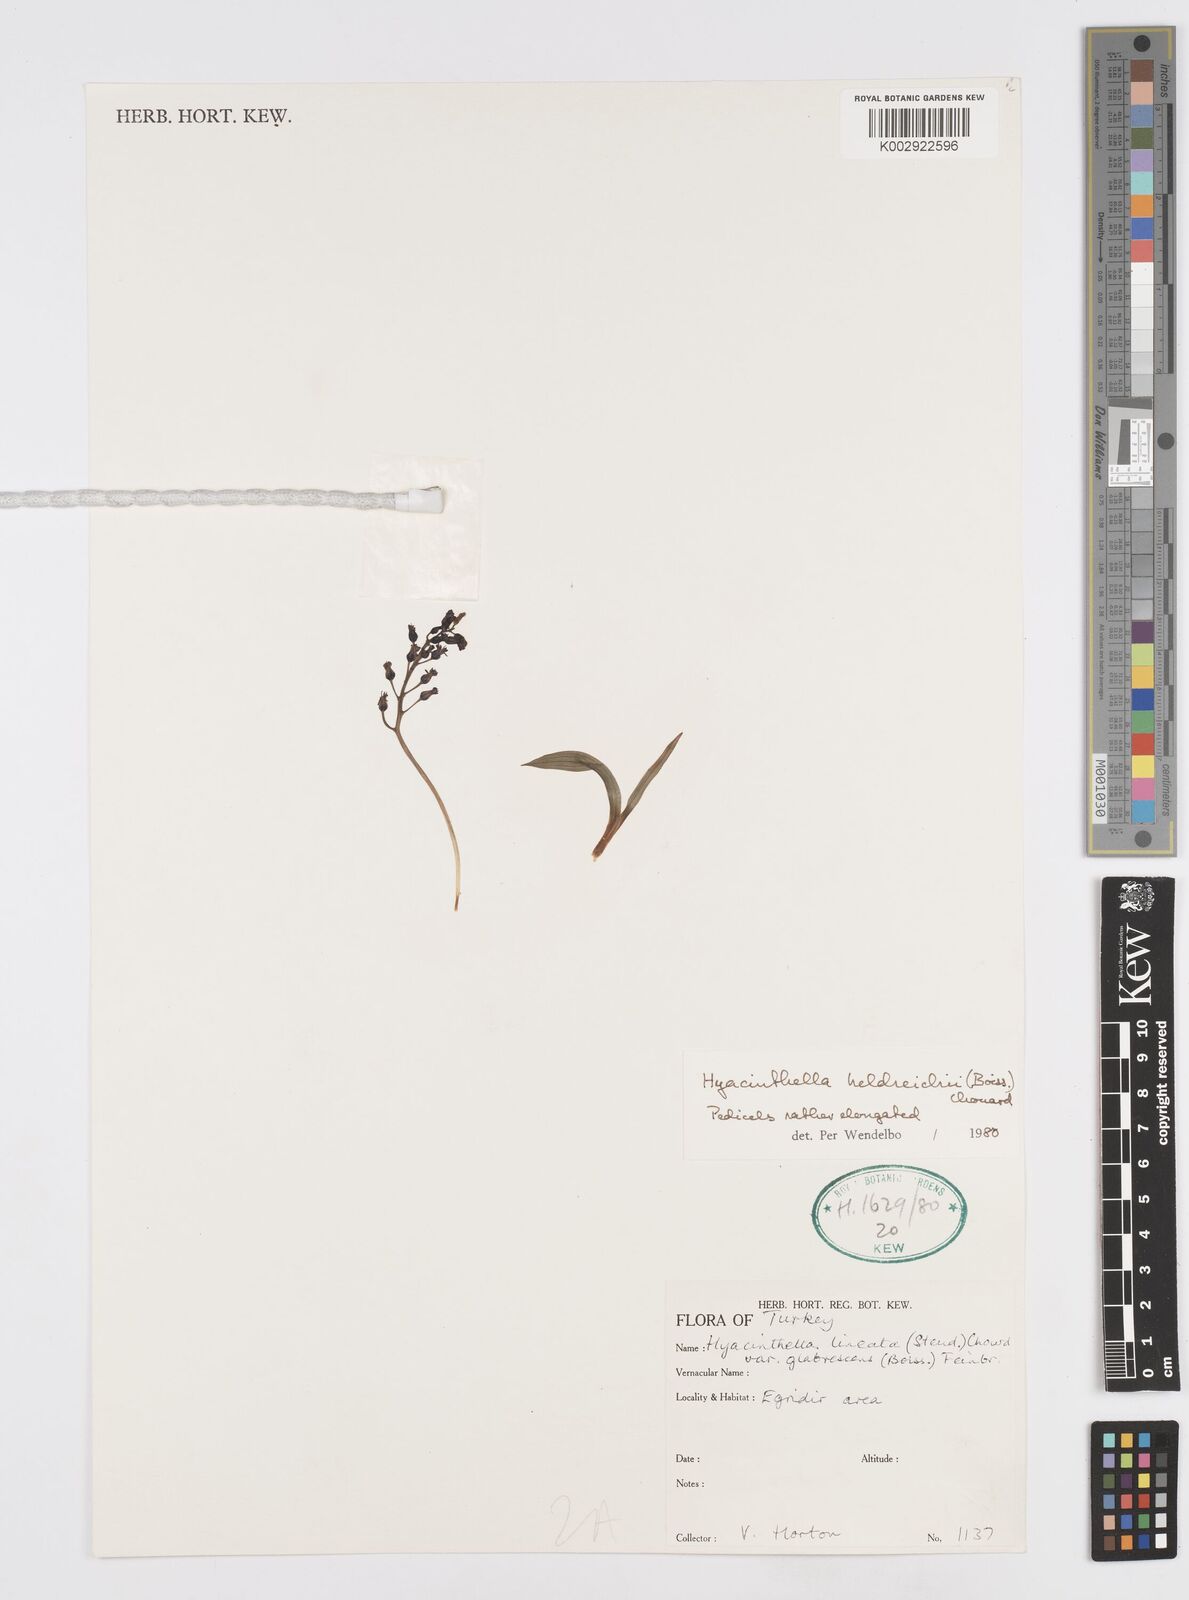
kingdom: Plantae
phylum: Tracheophyta
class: Liliopsida
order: Asparagales
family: Asparagaceae
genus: Hyacinthella
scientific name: Hyacinthella heldreichii
